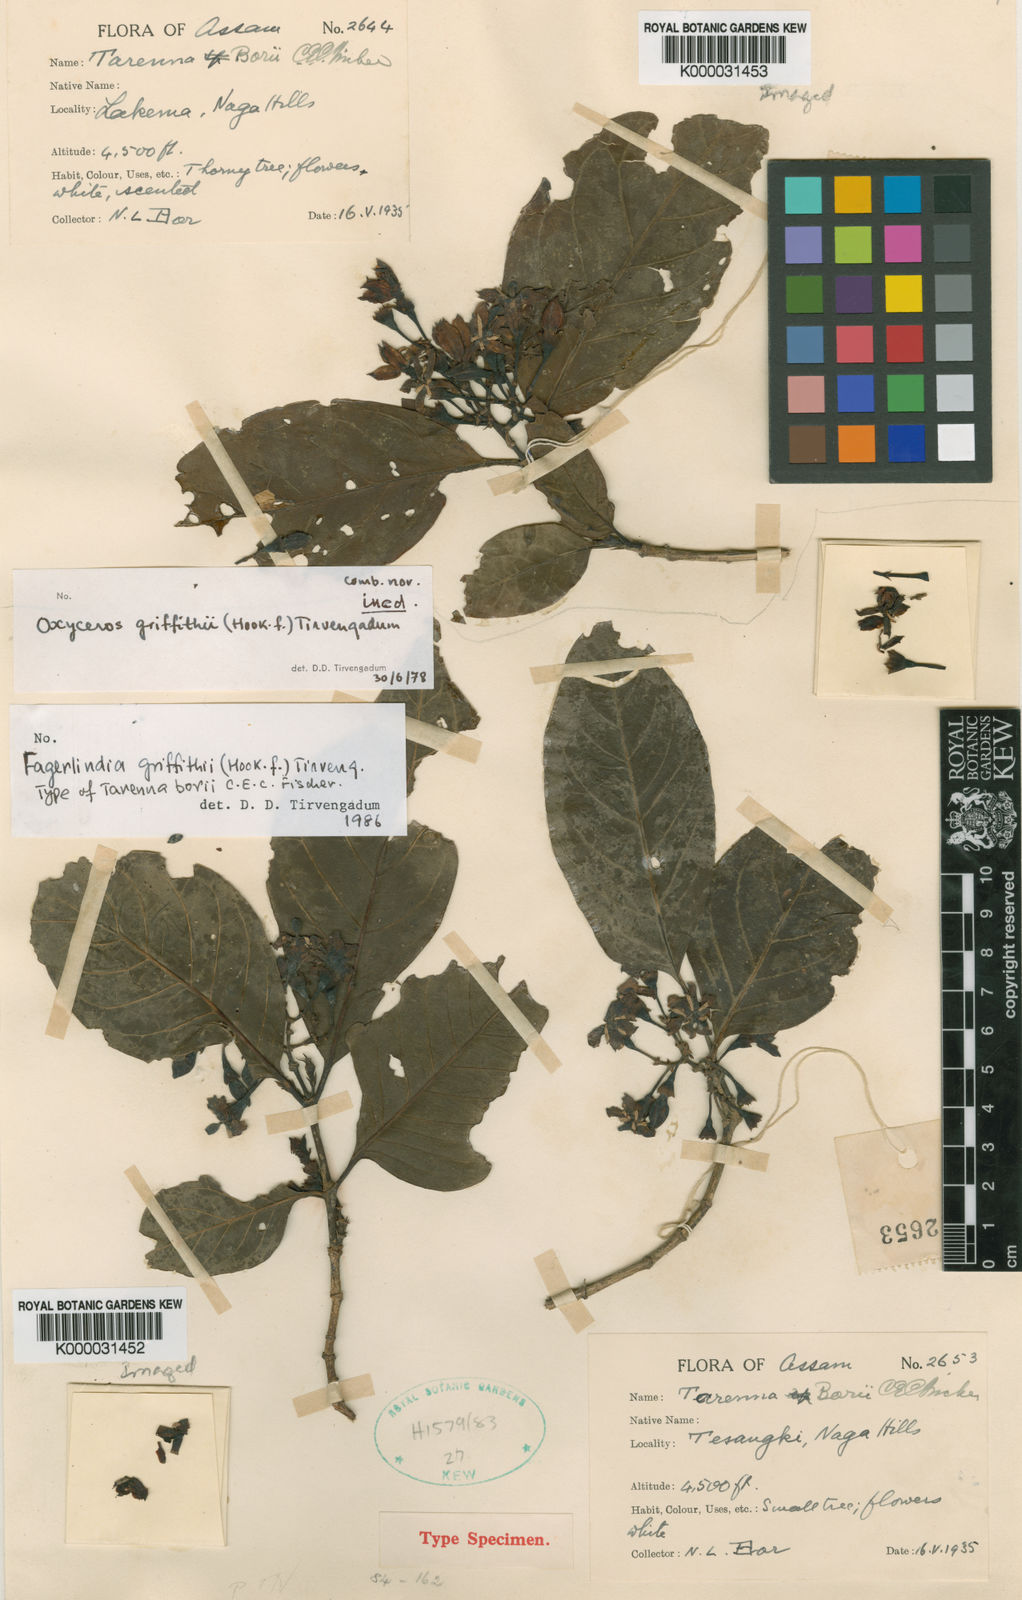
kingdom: Plantae
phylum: Tracheophyta
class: Magnoliopsida
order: Gentianales
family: Rubiaceae
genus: Benkara
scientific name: Benkara griffithii
